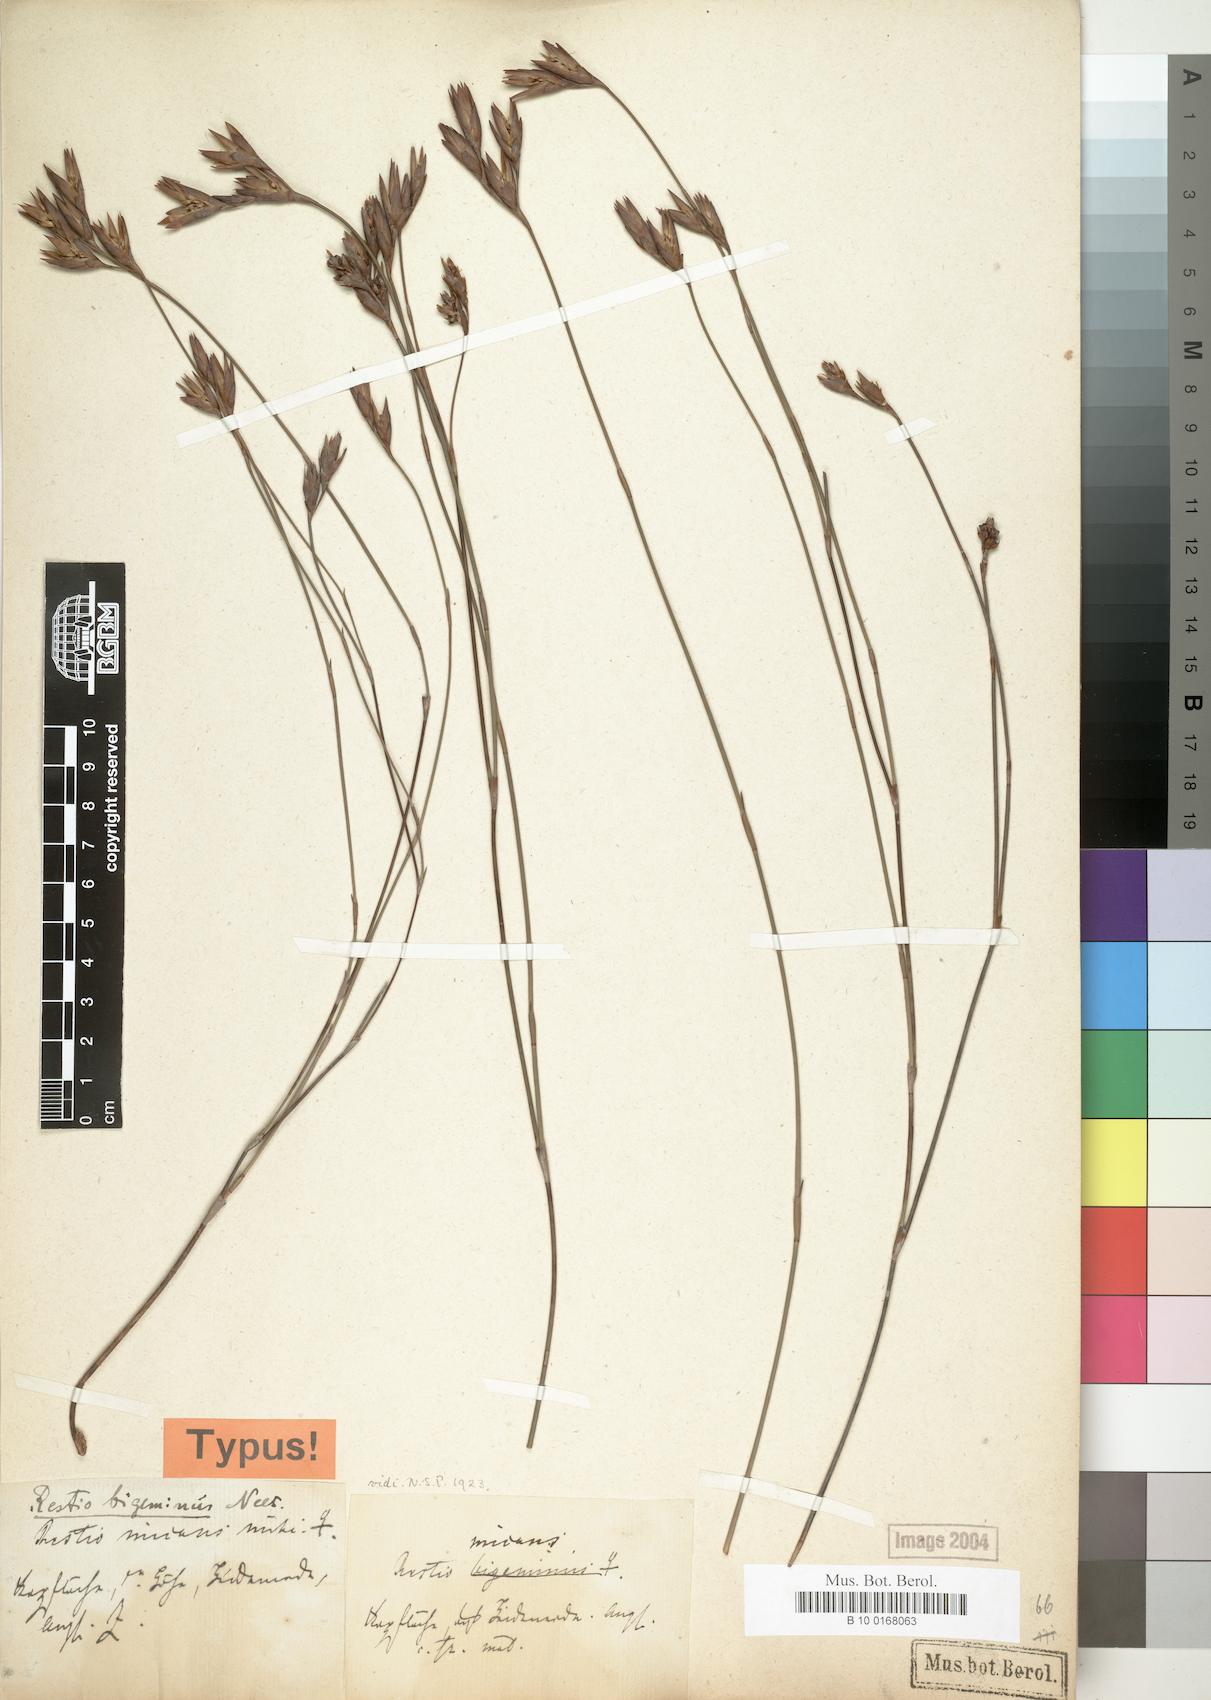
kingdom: Plantae
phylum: Tracheophyta
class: Liliopsida
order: Poales
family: Restionaceae
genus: Restio
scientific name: Restio micans
